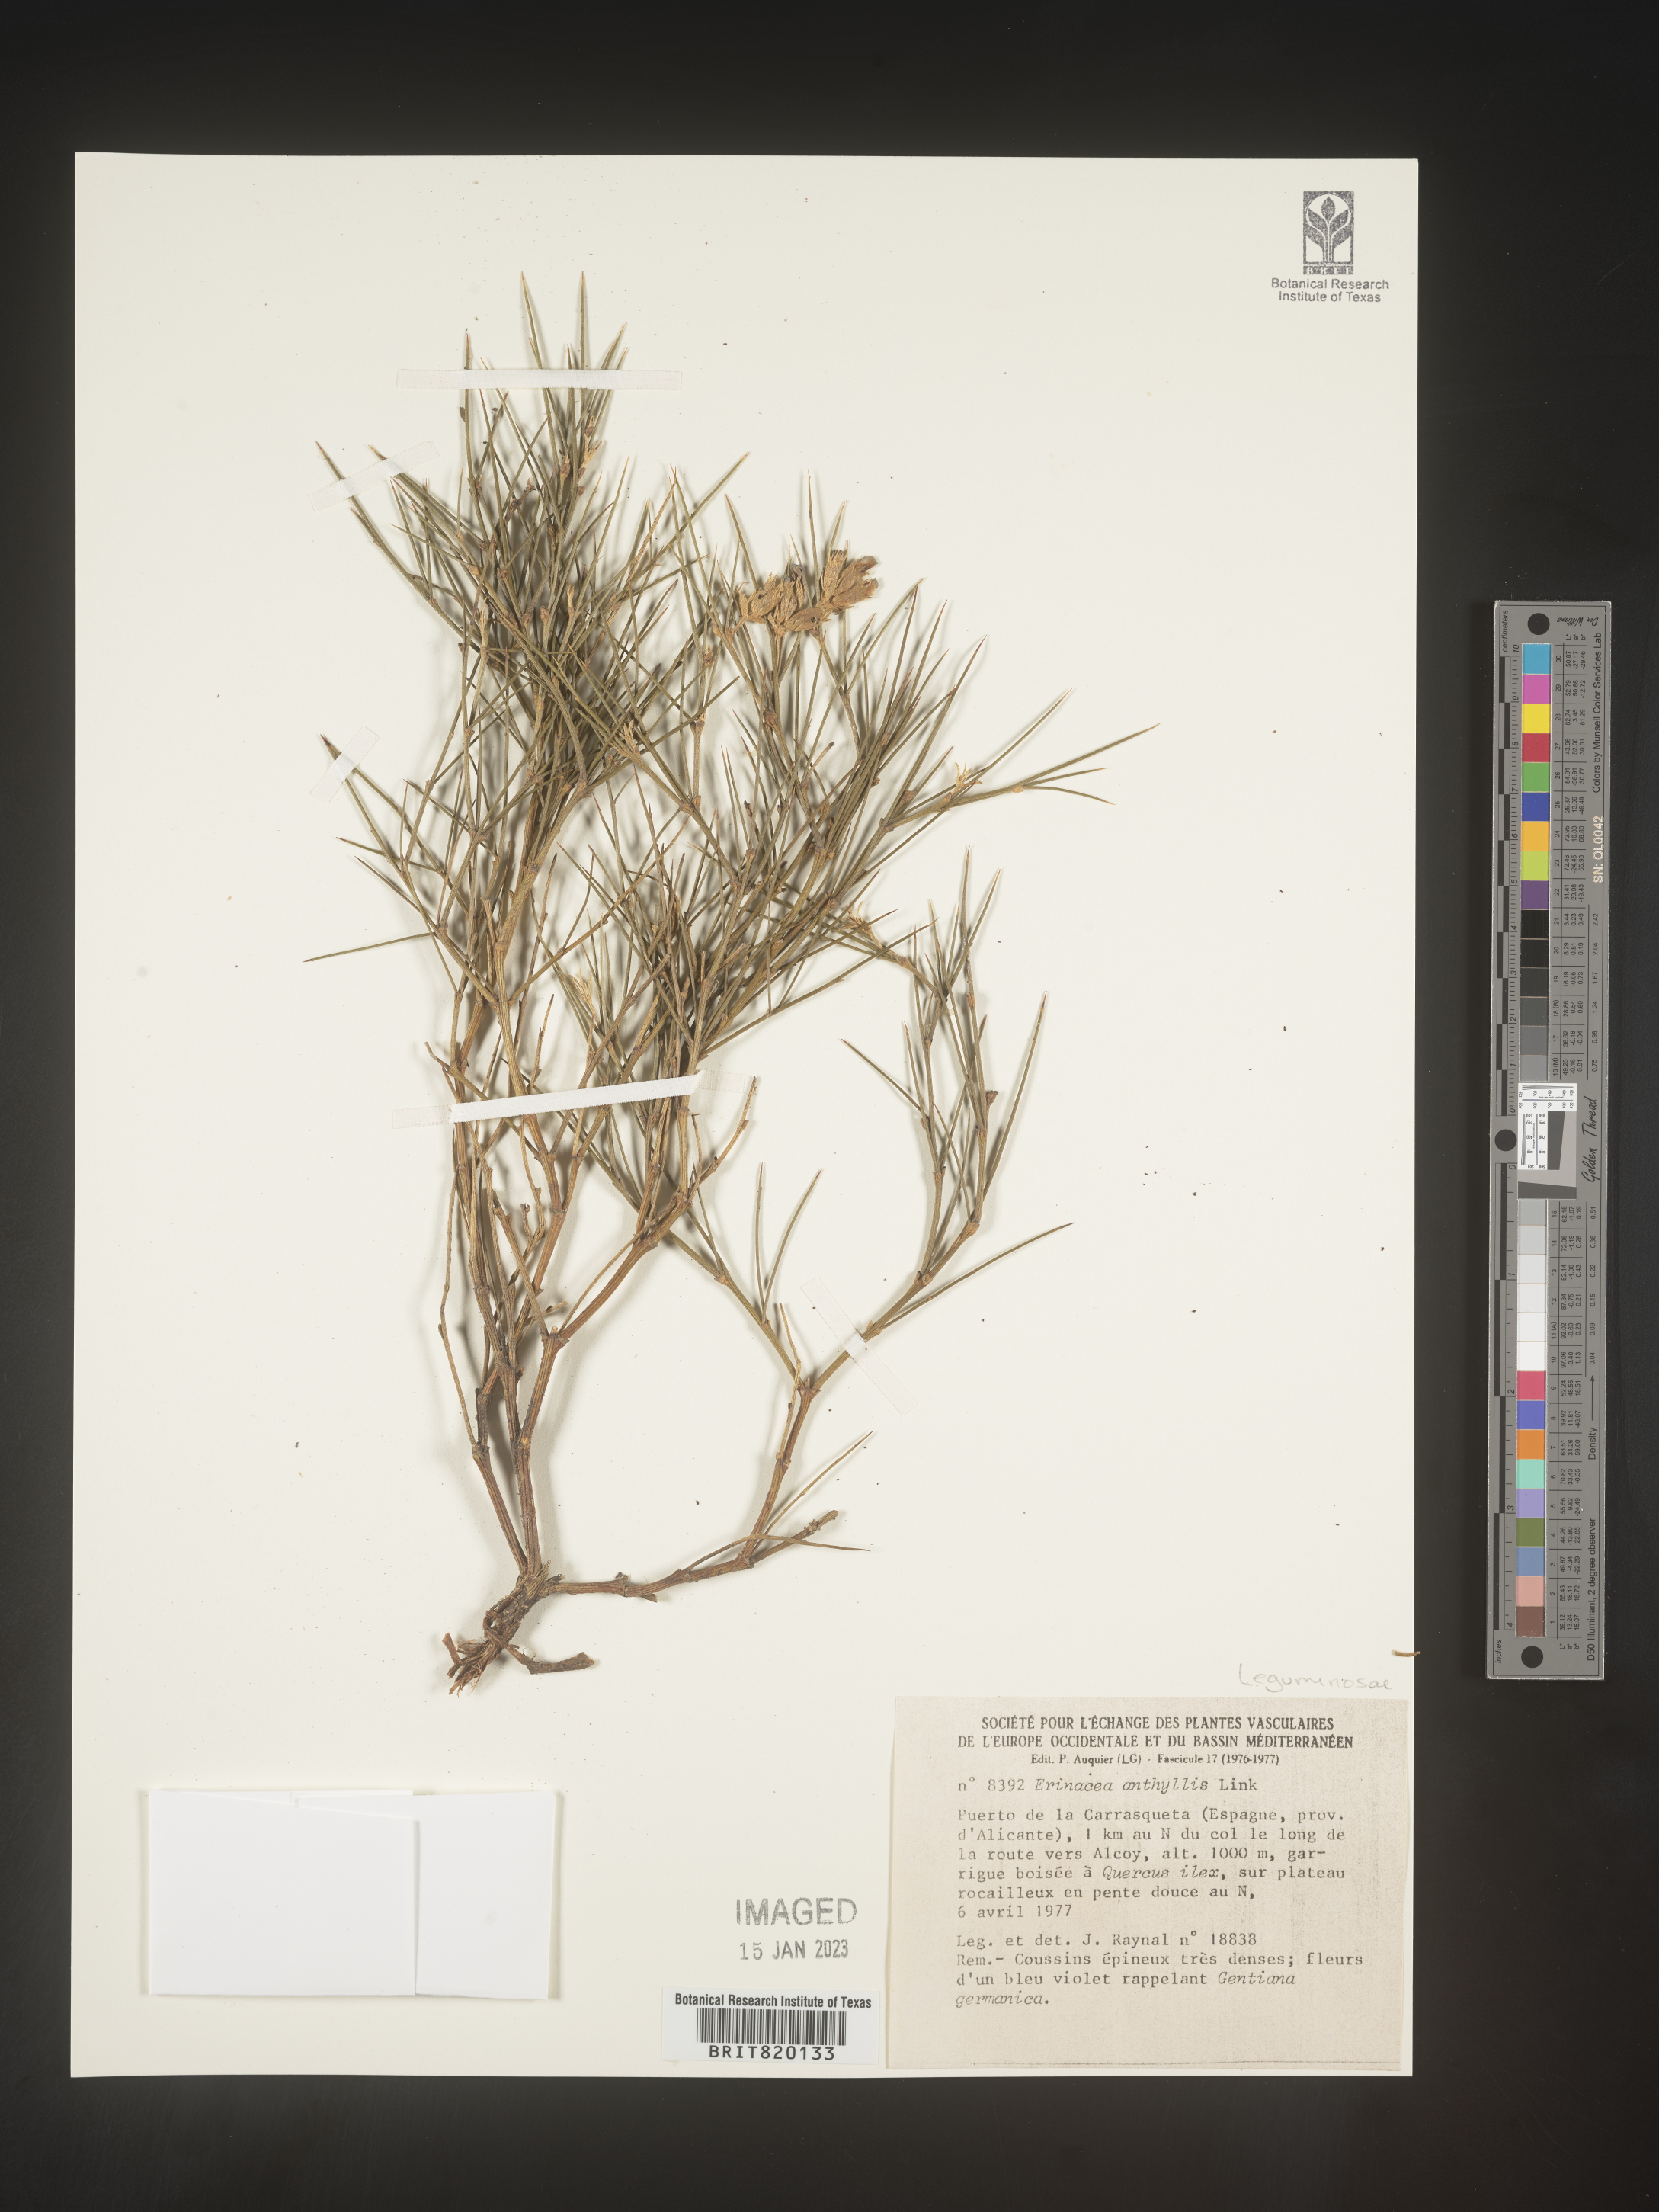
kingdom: Plantae
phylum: Tracheophyta
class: Magnoliopsida
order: Fabales
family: Fabaceae
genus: Erinacea
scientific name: Erinacea
